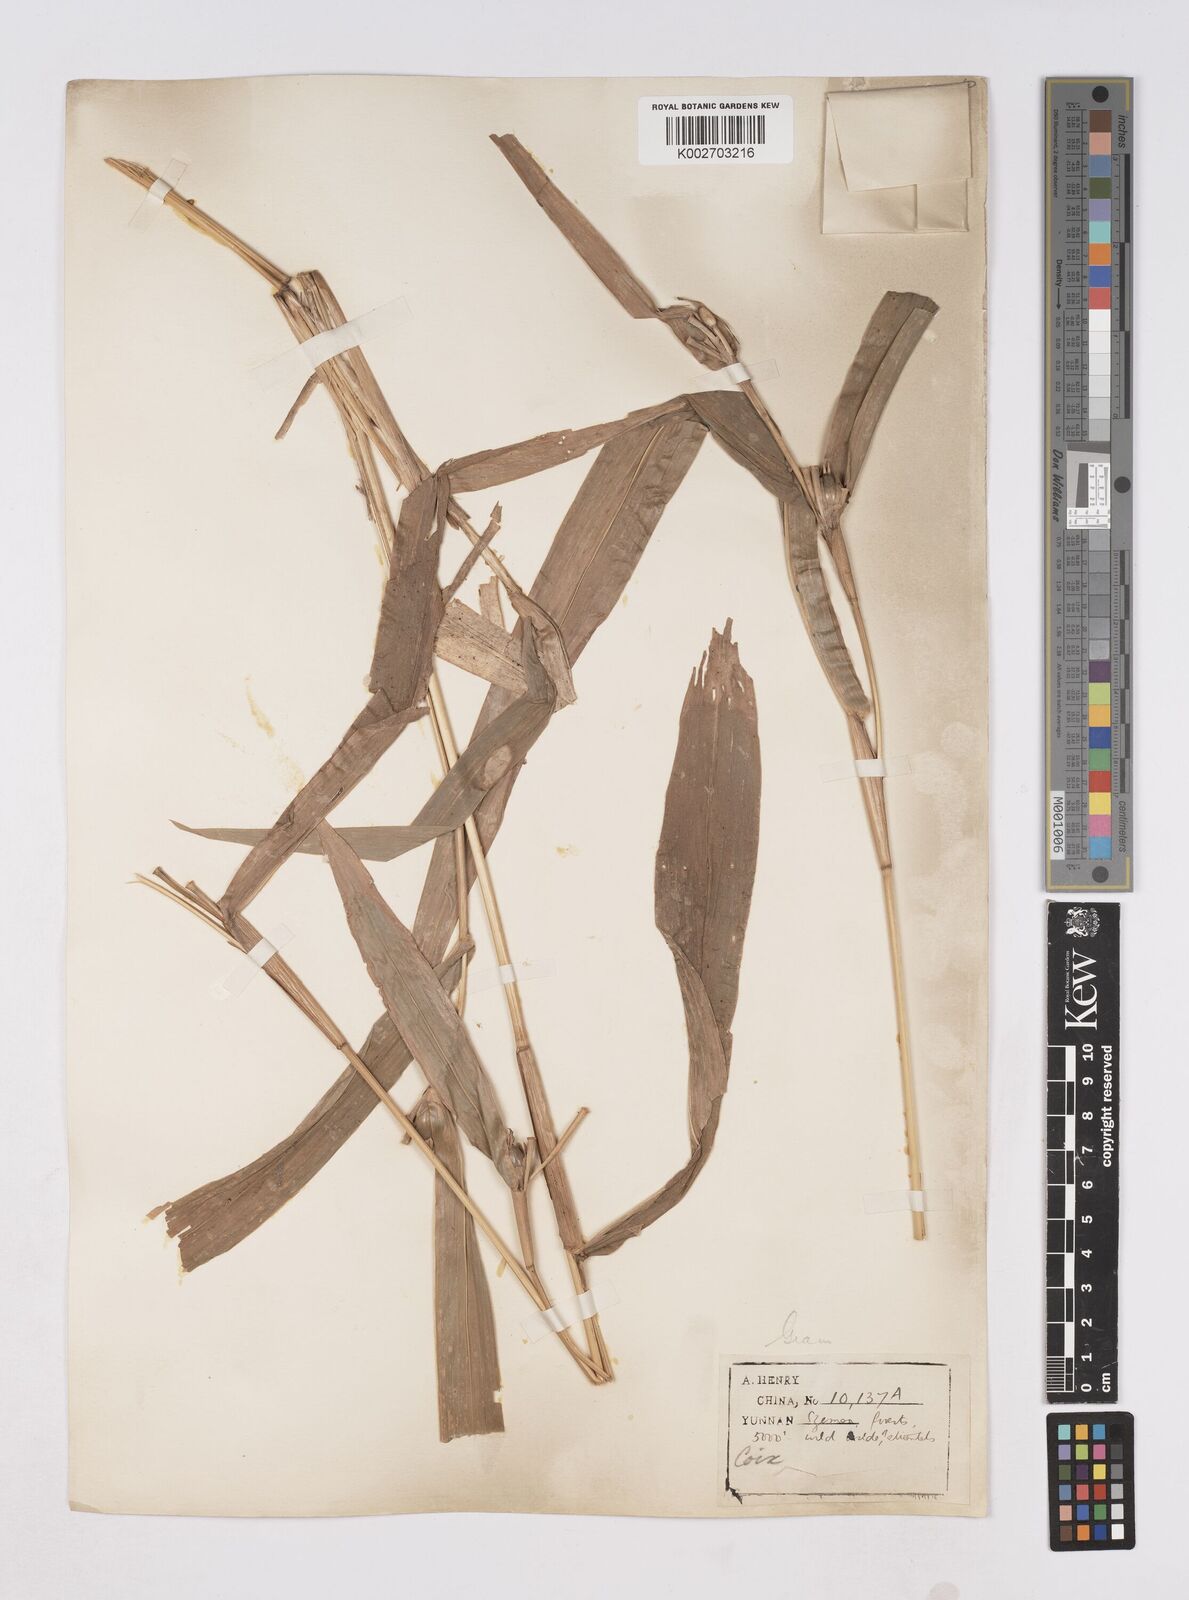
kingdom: Plantae
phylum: Tracheophyta
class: Liliopsida
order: Poales
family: Poaceae
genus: Coix
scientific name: Coix lacryma-jobi
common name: Job's tears
